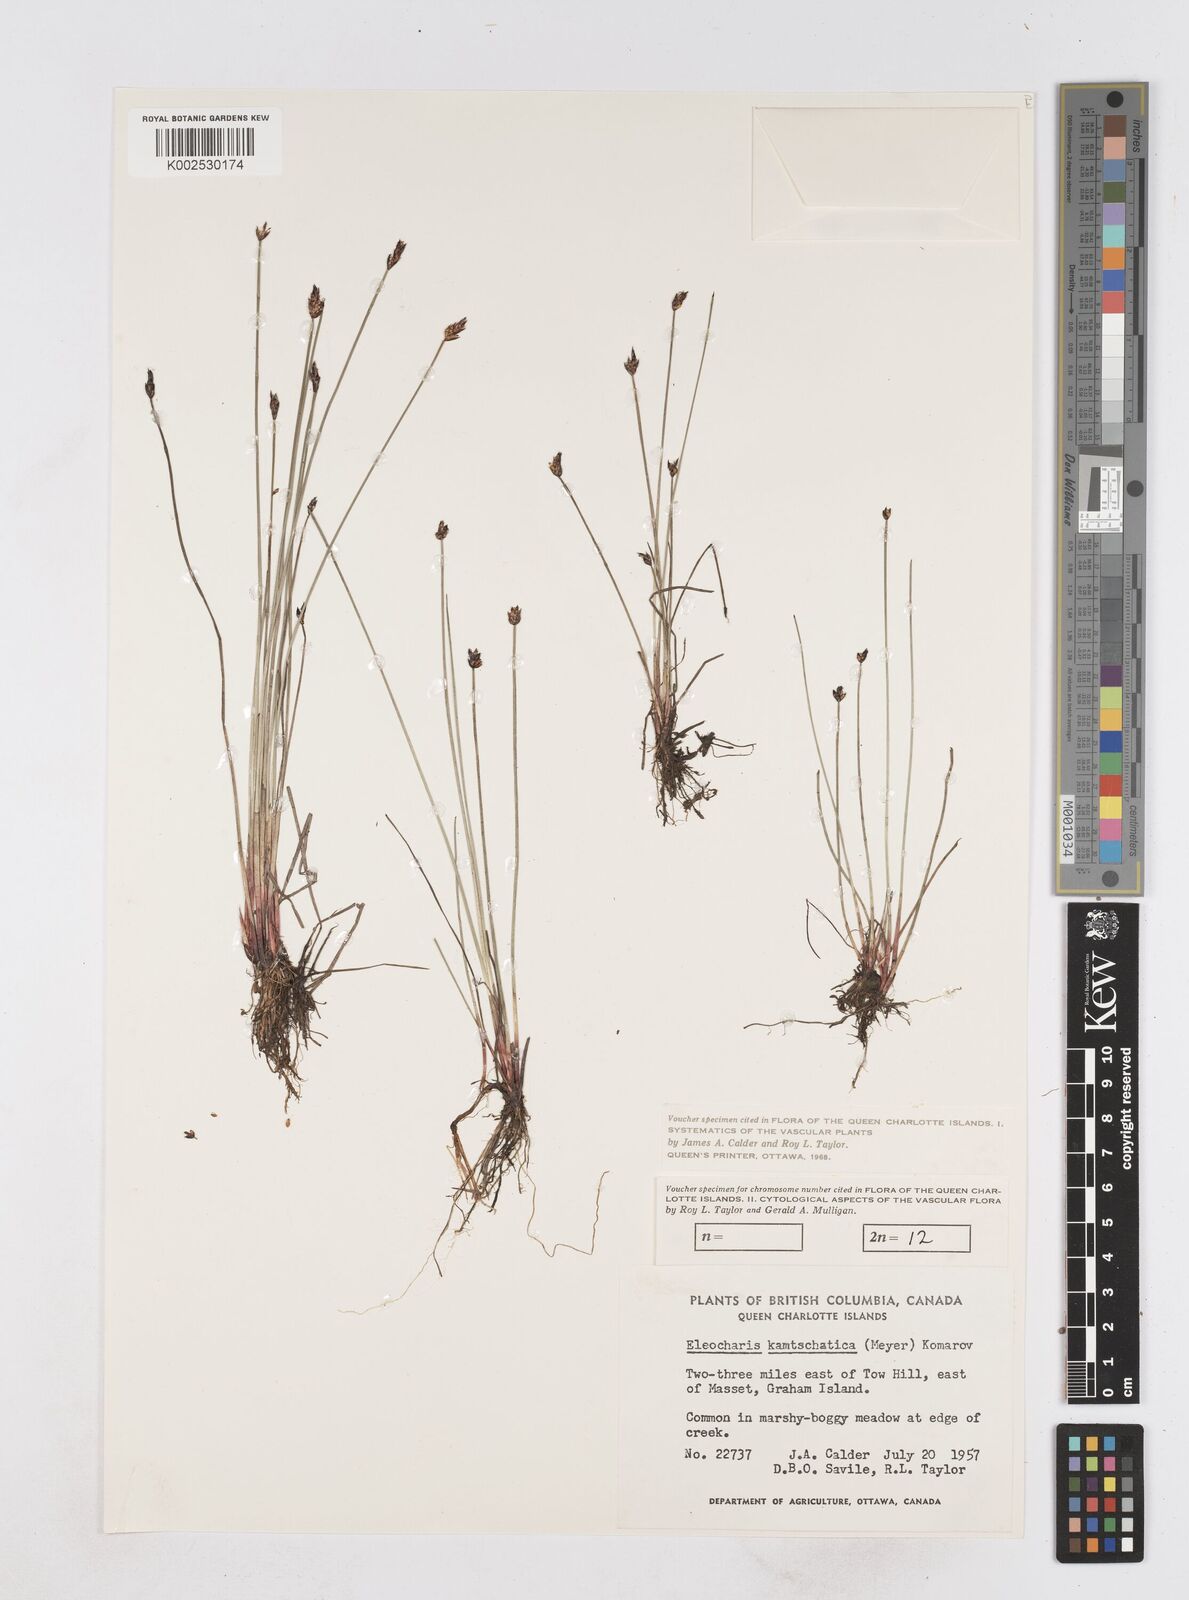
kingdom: Plantae
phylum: Tracheophyta
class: Liliopsida
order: Poales
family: Cyperaceae
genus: Eleocharis
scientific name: Eleocharis kamtschatica
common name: Kamchatka spikerush
